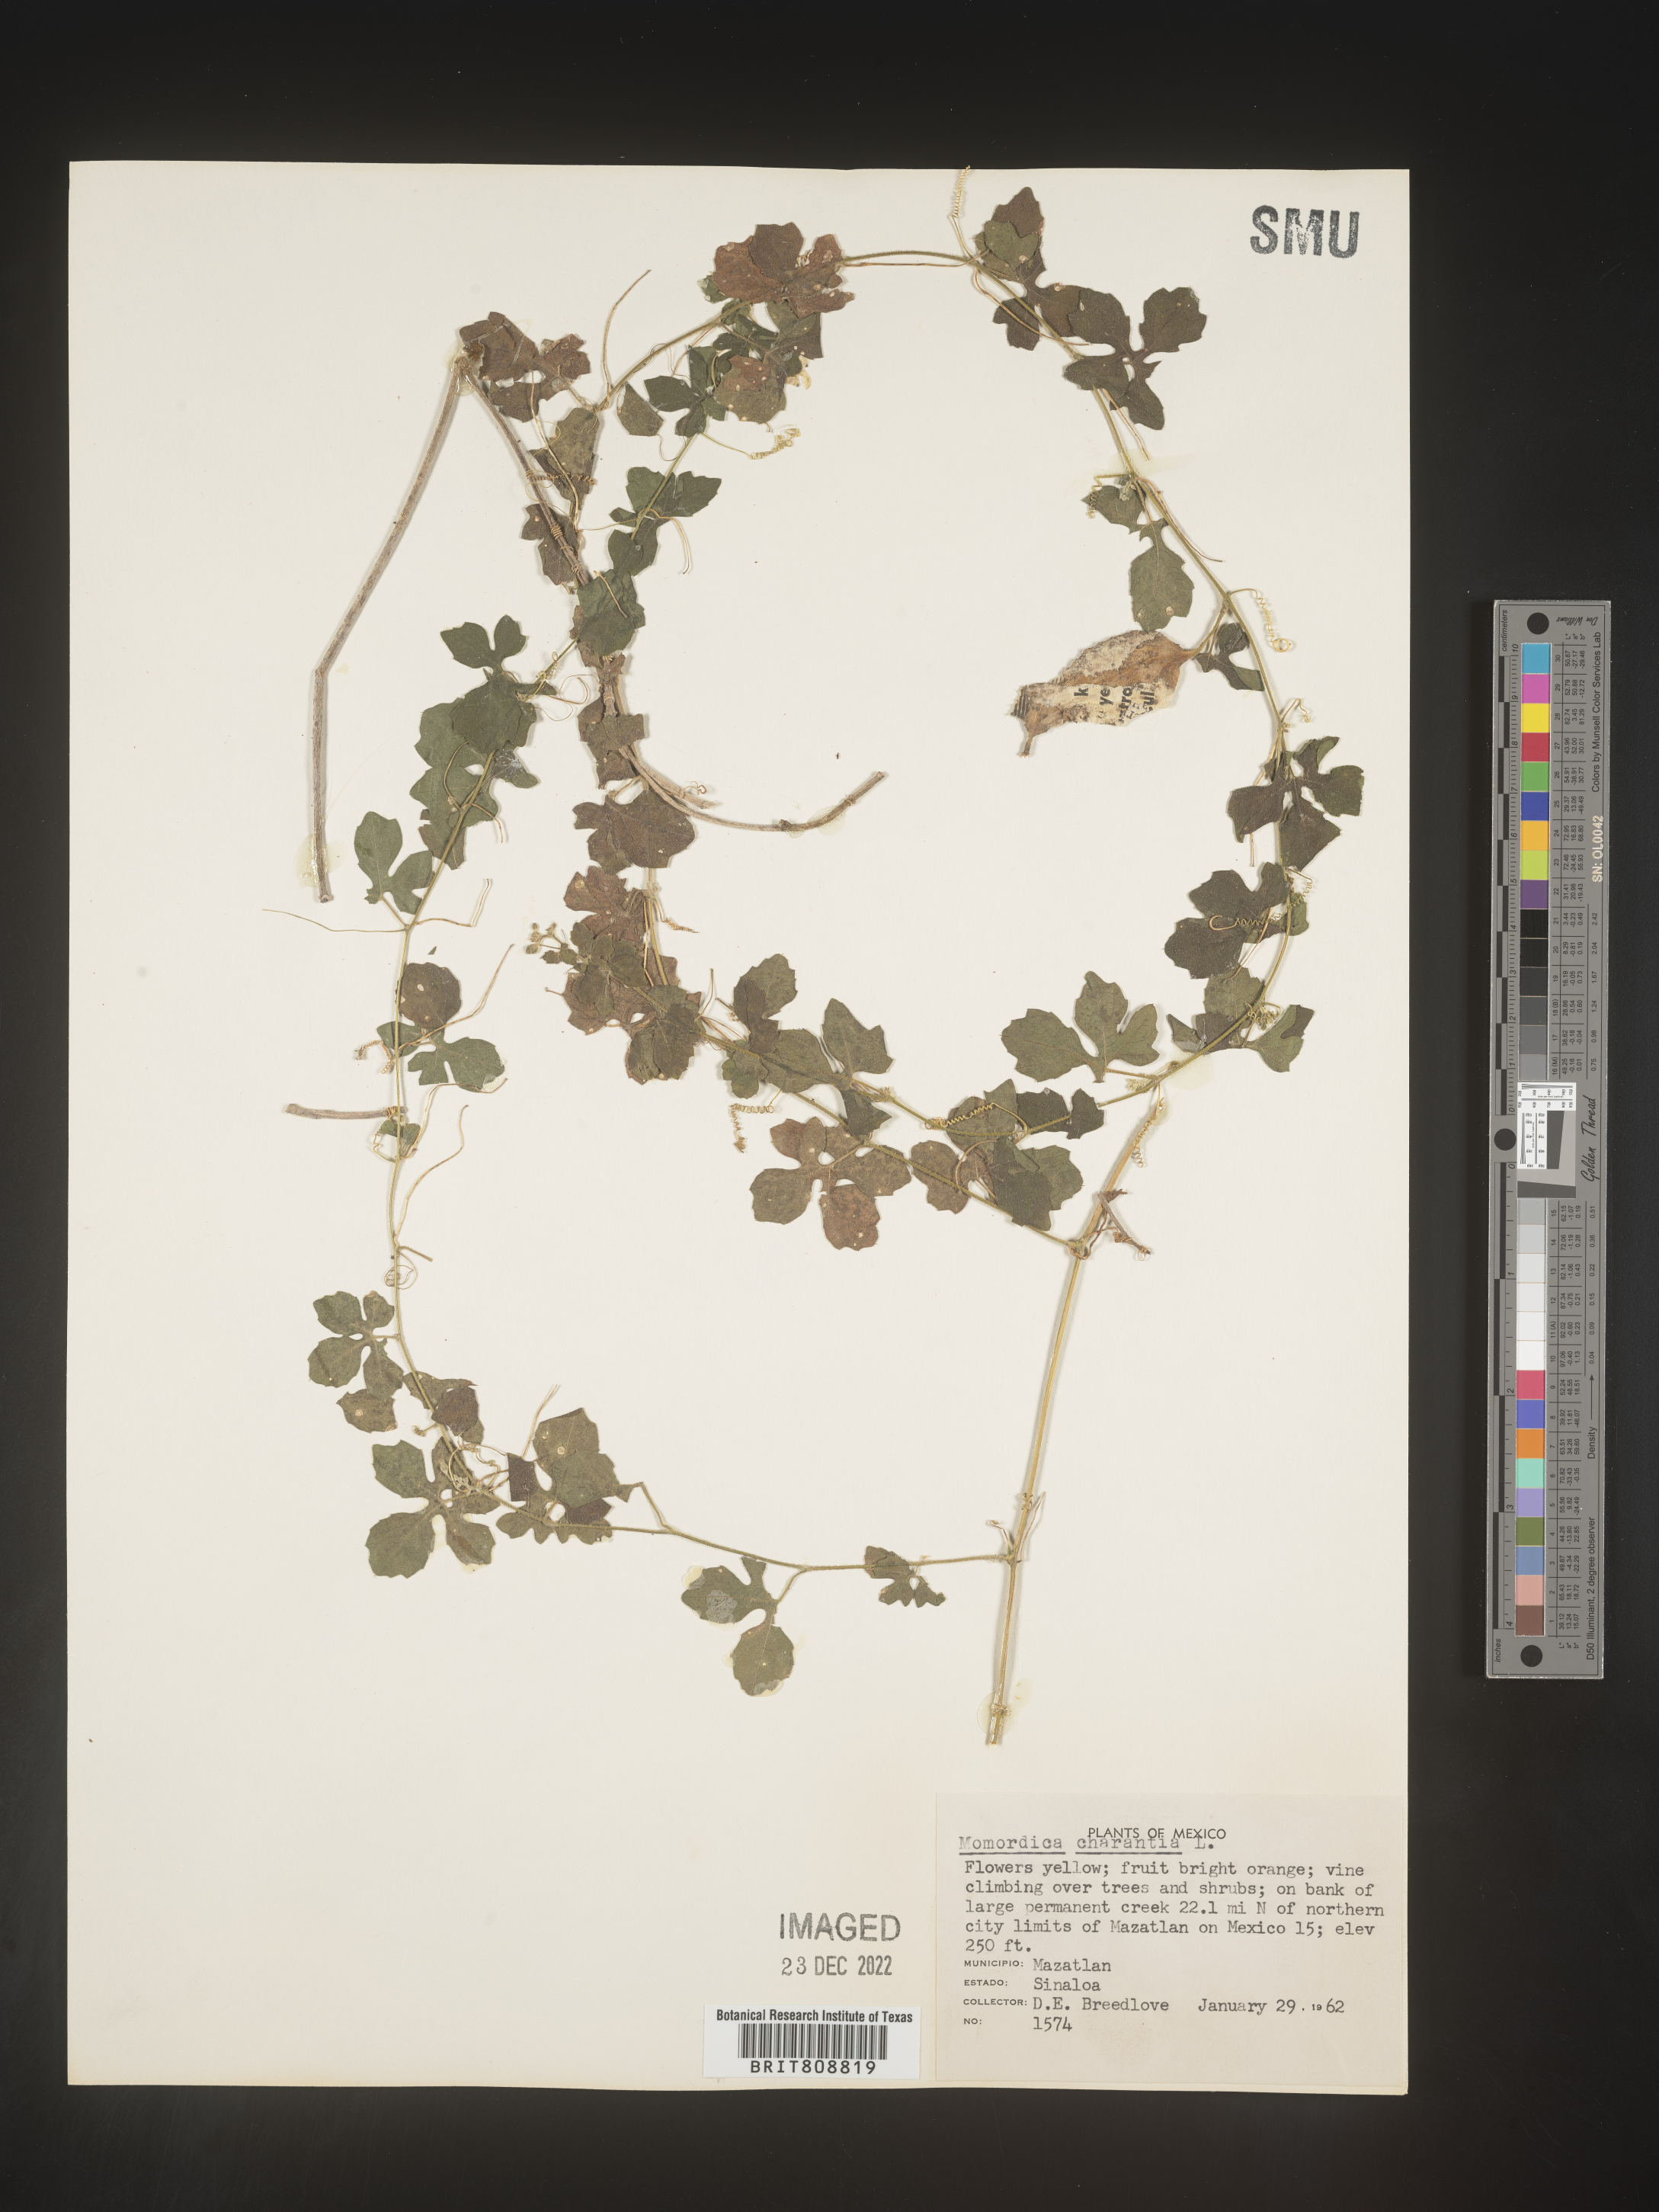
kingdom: Plantae
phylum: Tracheophyta
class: Magnoliopsida
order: Cucurbitales
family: Cucurbitaceae
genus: Momordica
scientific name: Momordica
